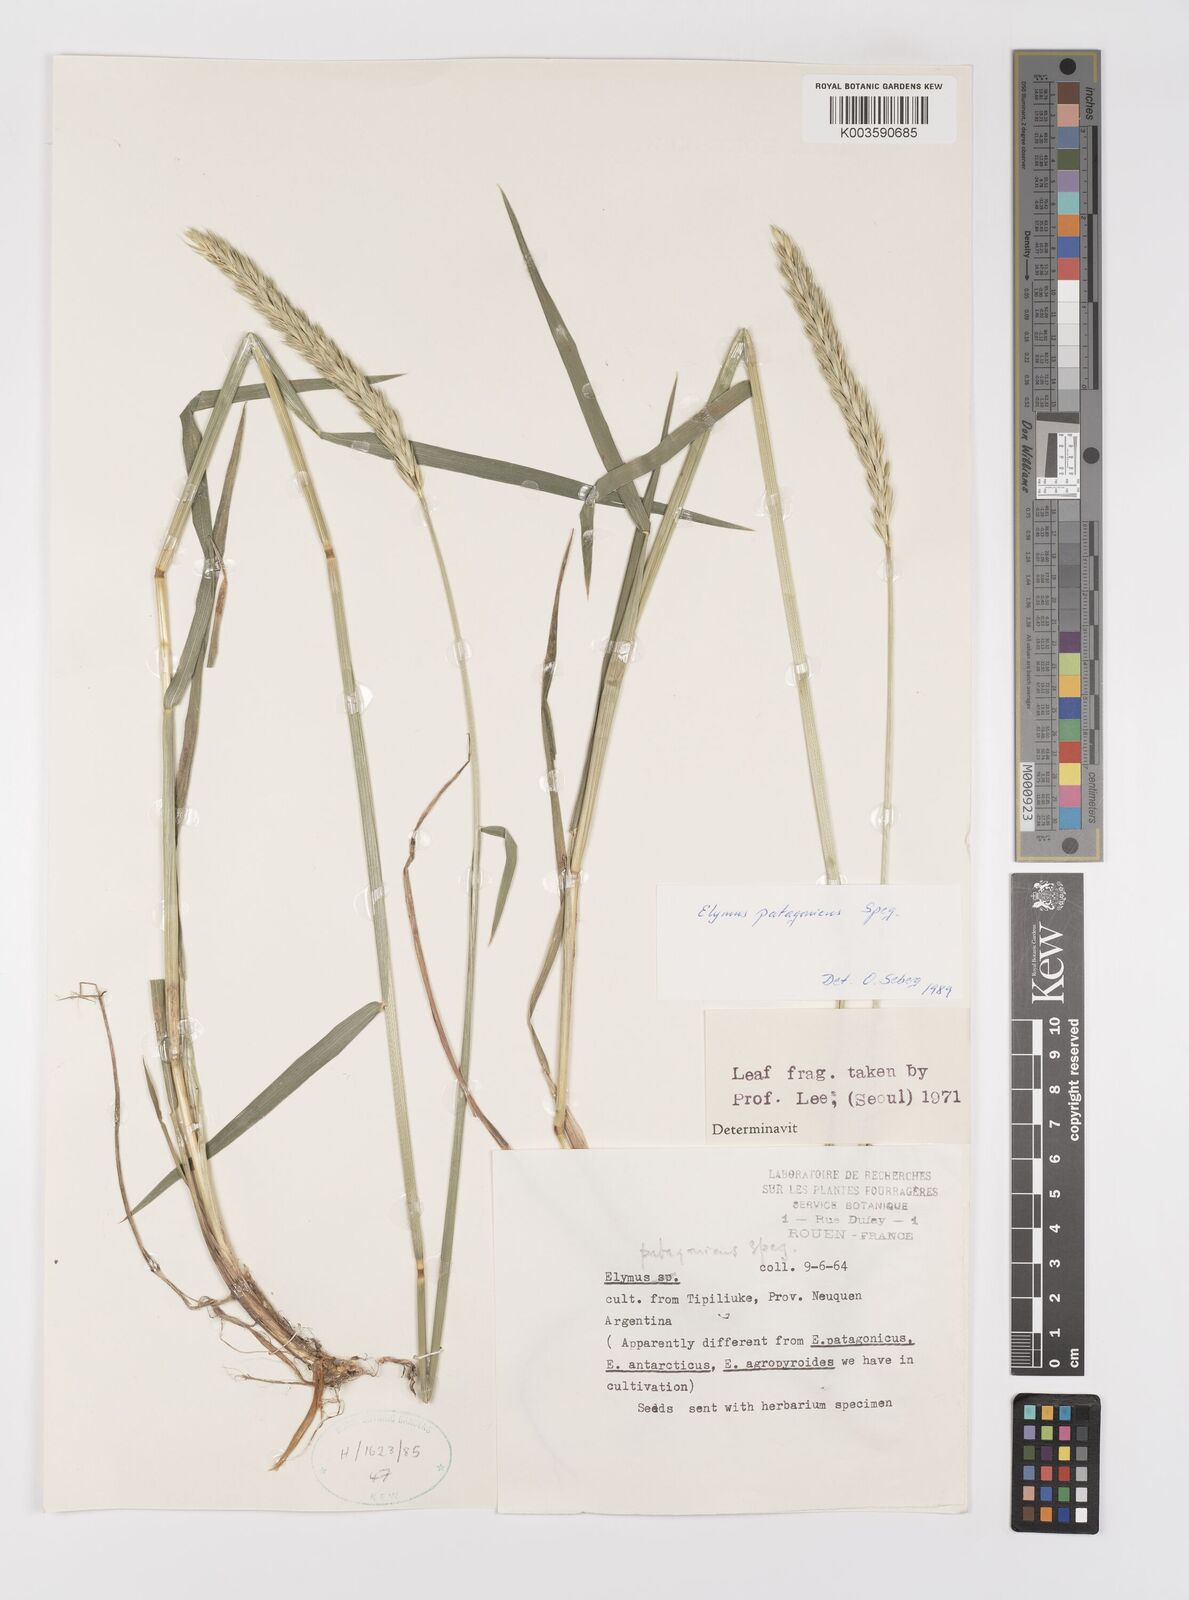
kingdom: Plantae
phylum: Tracheophyta
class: Liliopsida
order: Poales
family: Poaceae
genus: Elymus
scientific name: Elymus patagonicus
